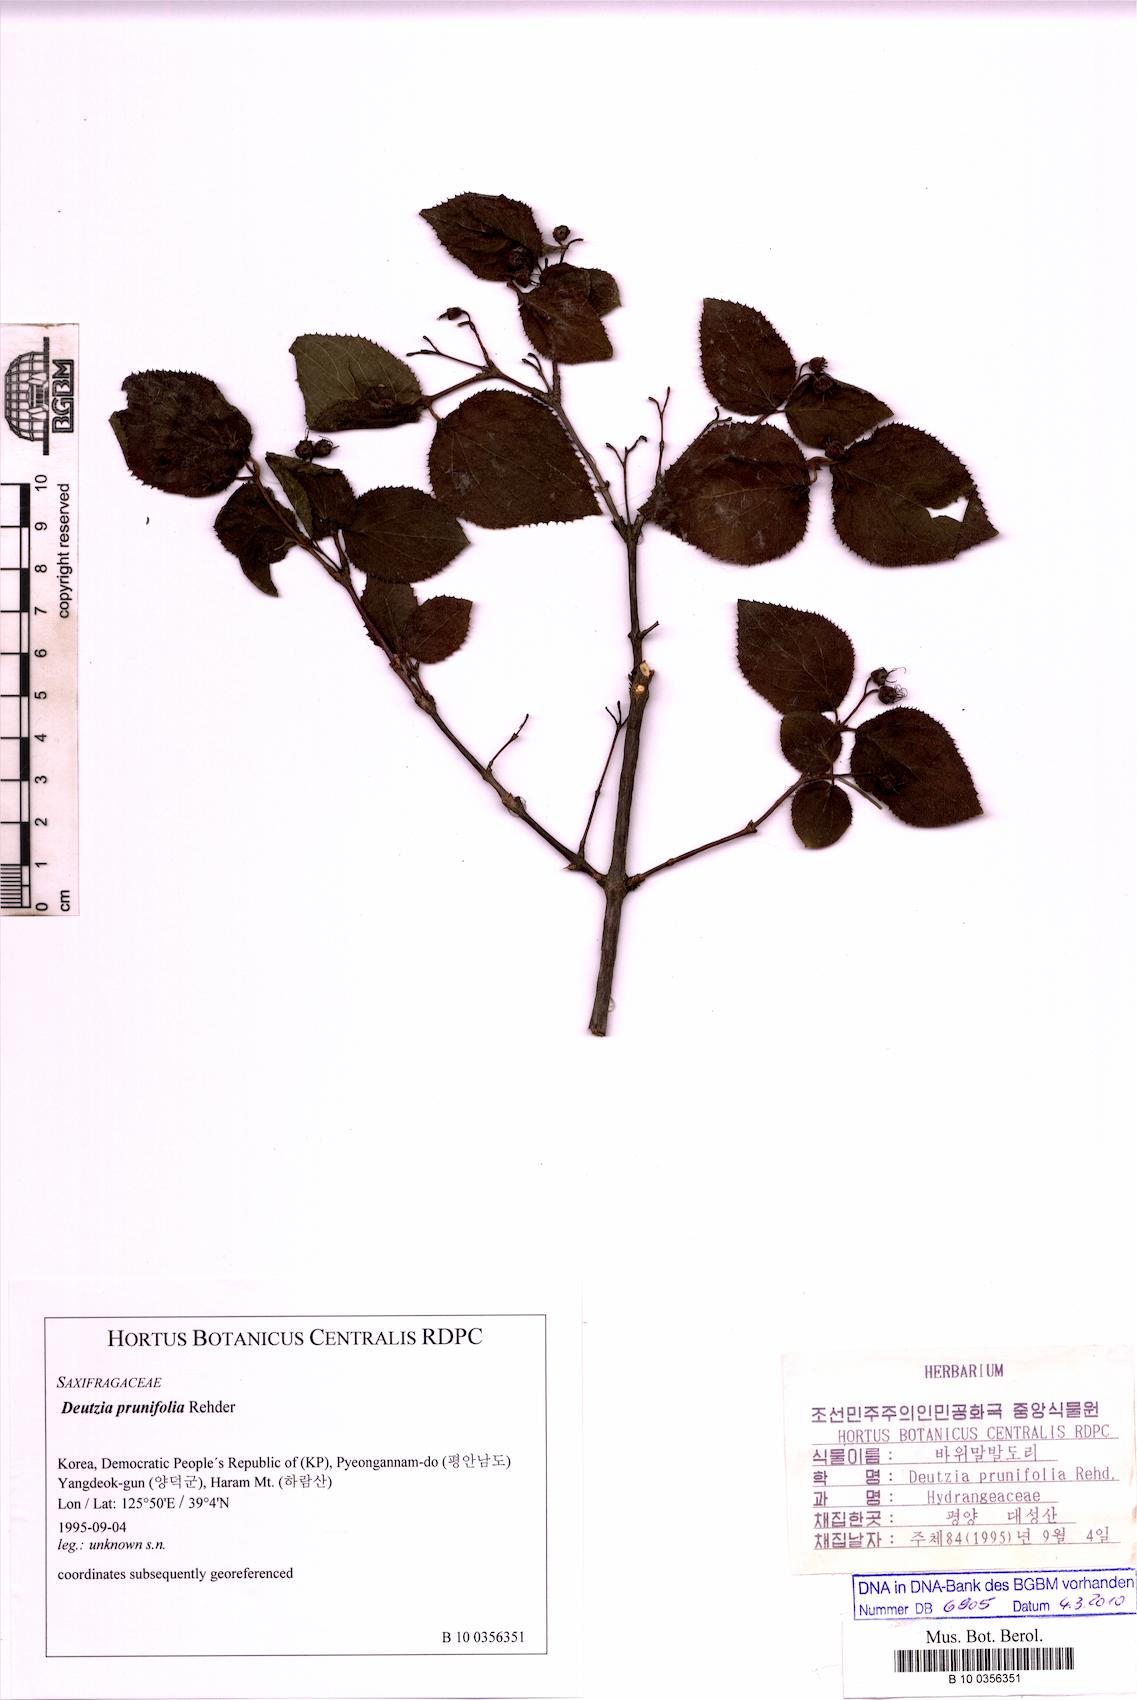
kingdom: Plantae
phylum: Tracheophyta
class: Magnoliopsida
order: Cornales
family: Hydrangeaceae
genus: Deutzia
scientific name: Deutzia grandiflora
